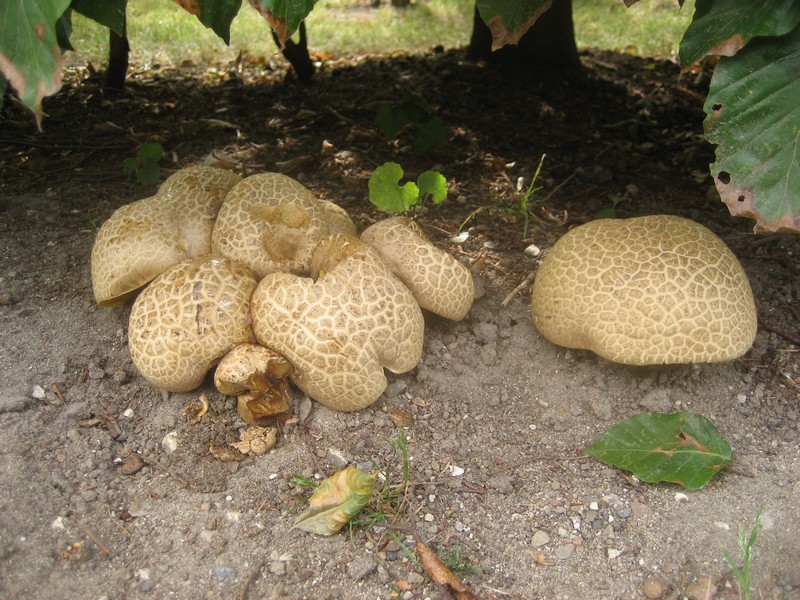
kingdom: Fungi
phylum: Basidiomycota
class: Agaricomycetes
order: Boletales
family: Boletaceae
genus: Caloboletus
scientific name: Caloboletus radicans
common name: rod-rørhat
